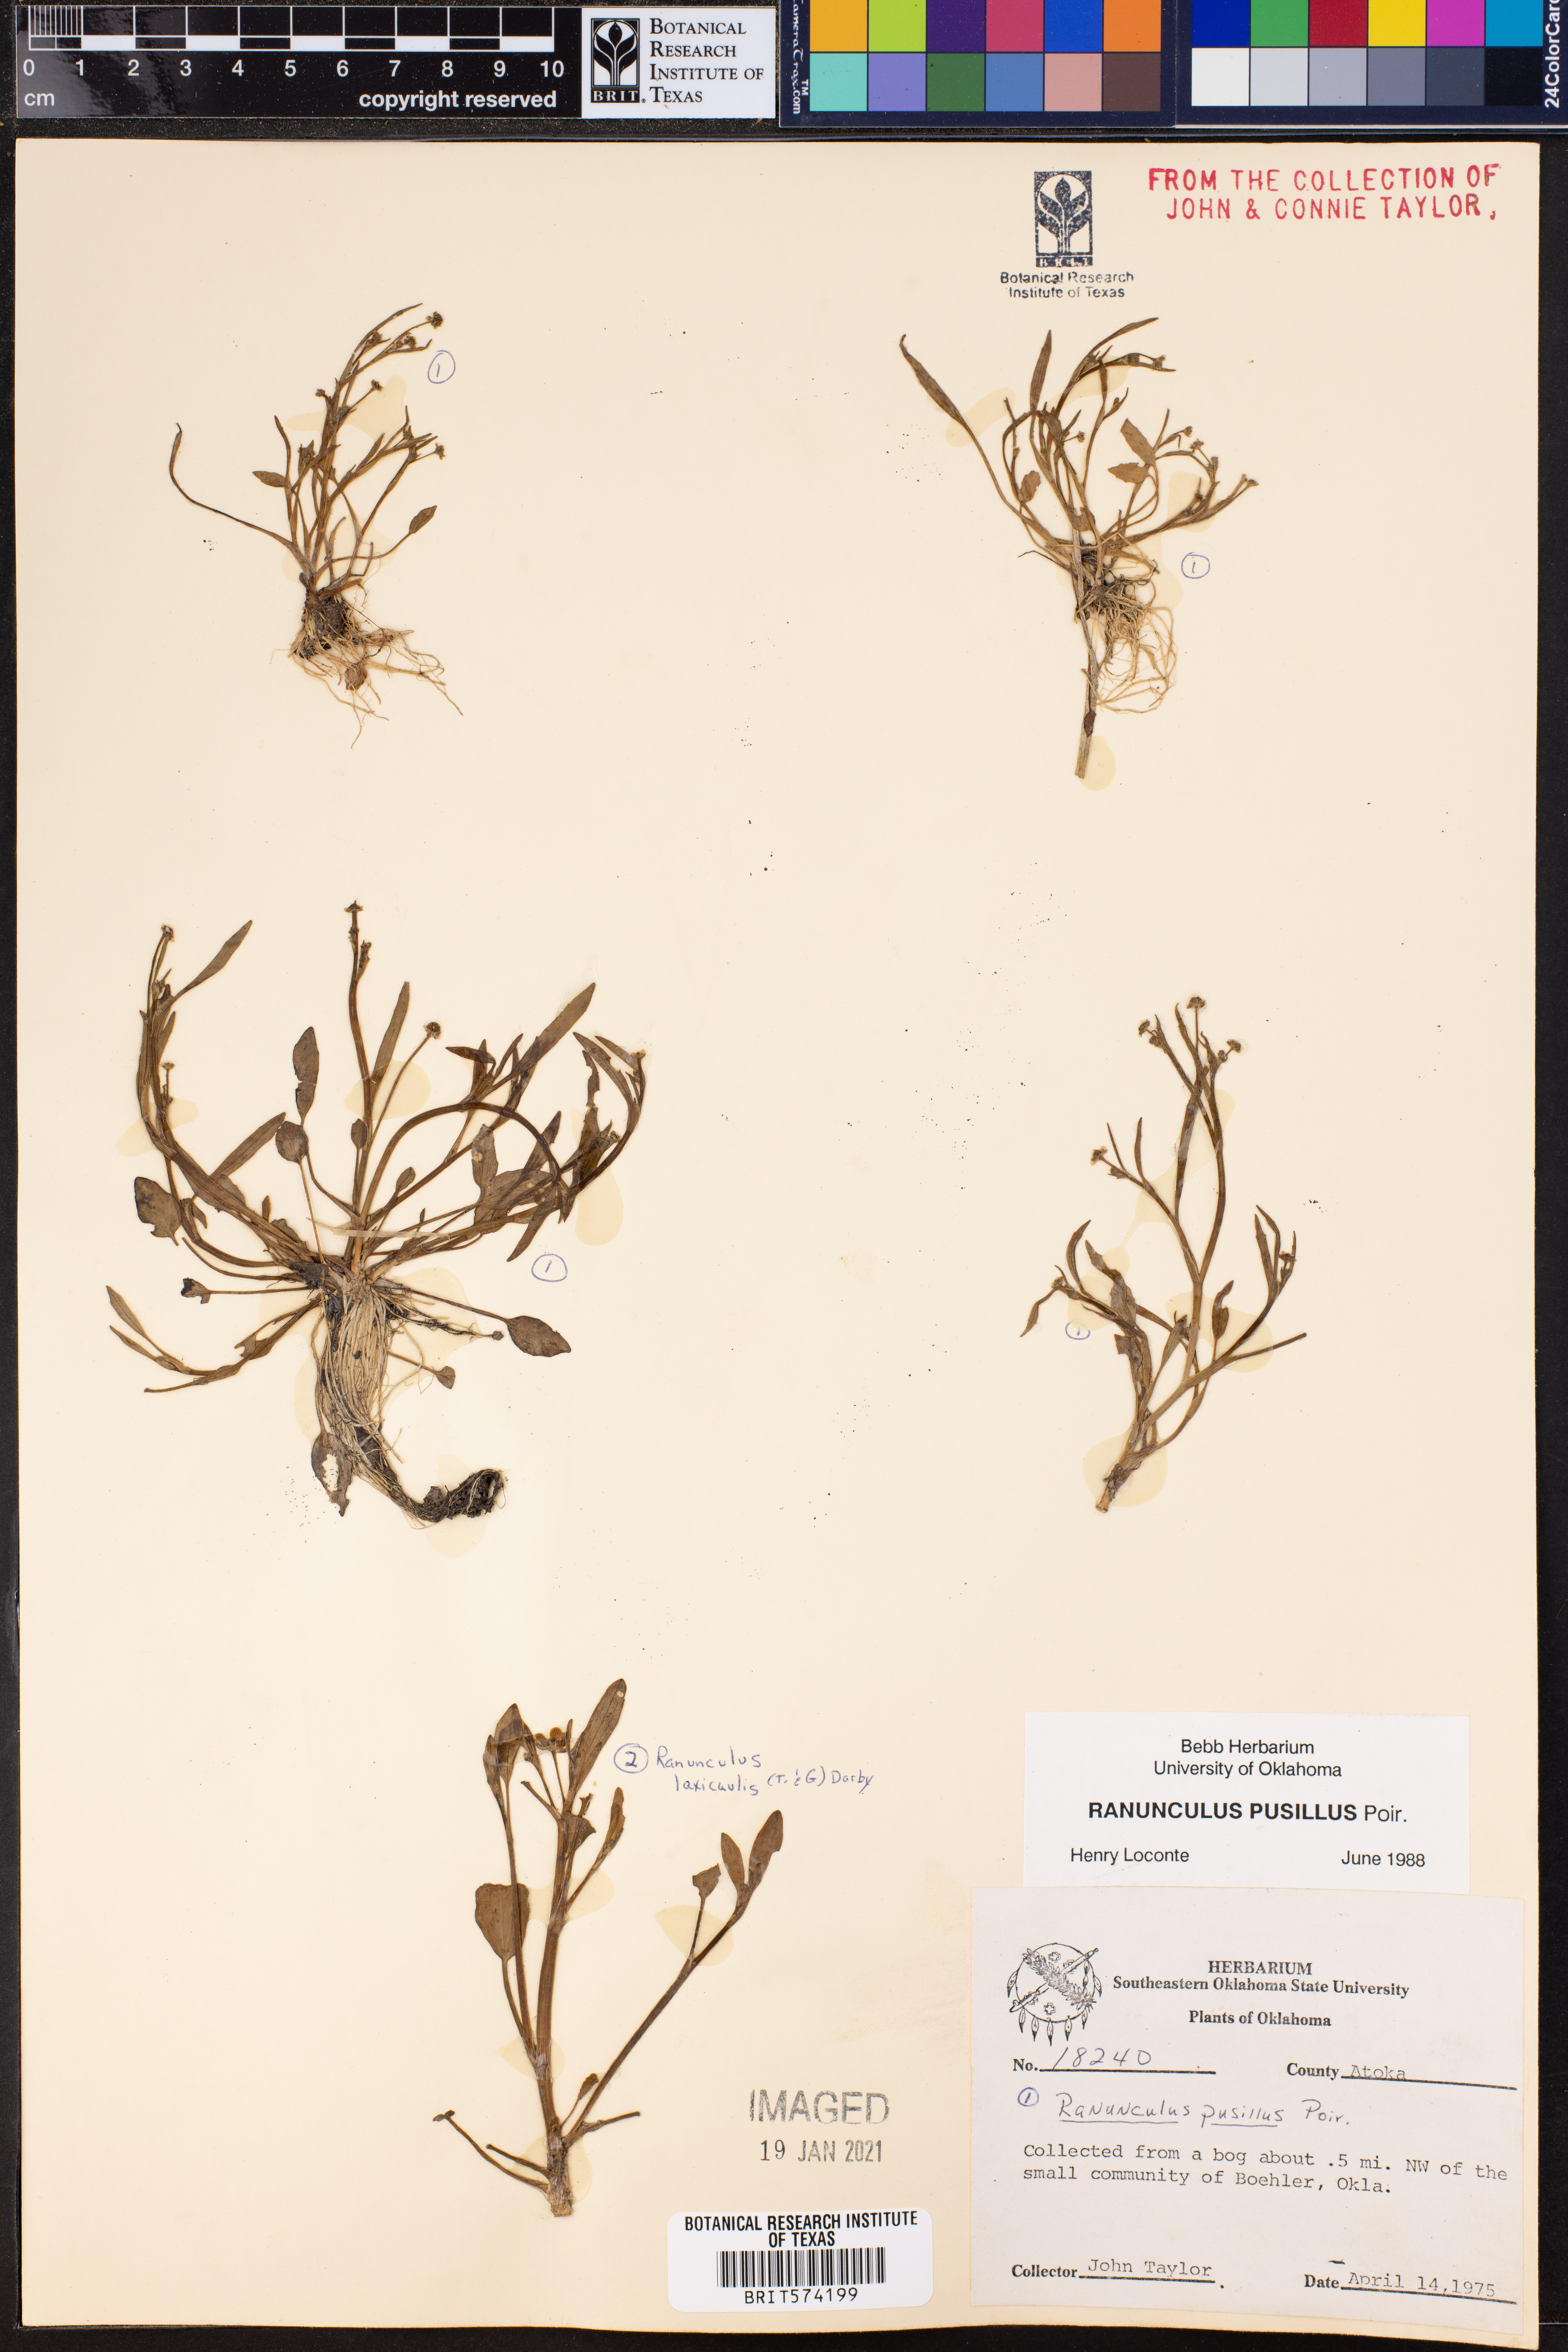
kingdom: Plantae
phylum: Tracheophyta
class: Magnoliopsida
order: Ranunculales
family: Ranunculaceae
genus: Ranunculus
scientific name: Ranunculus pusillus
